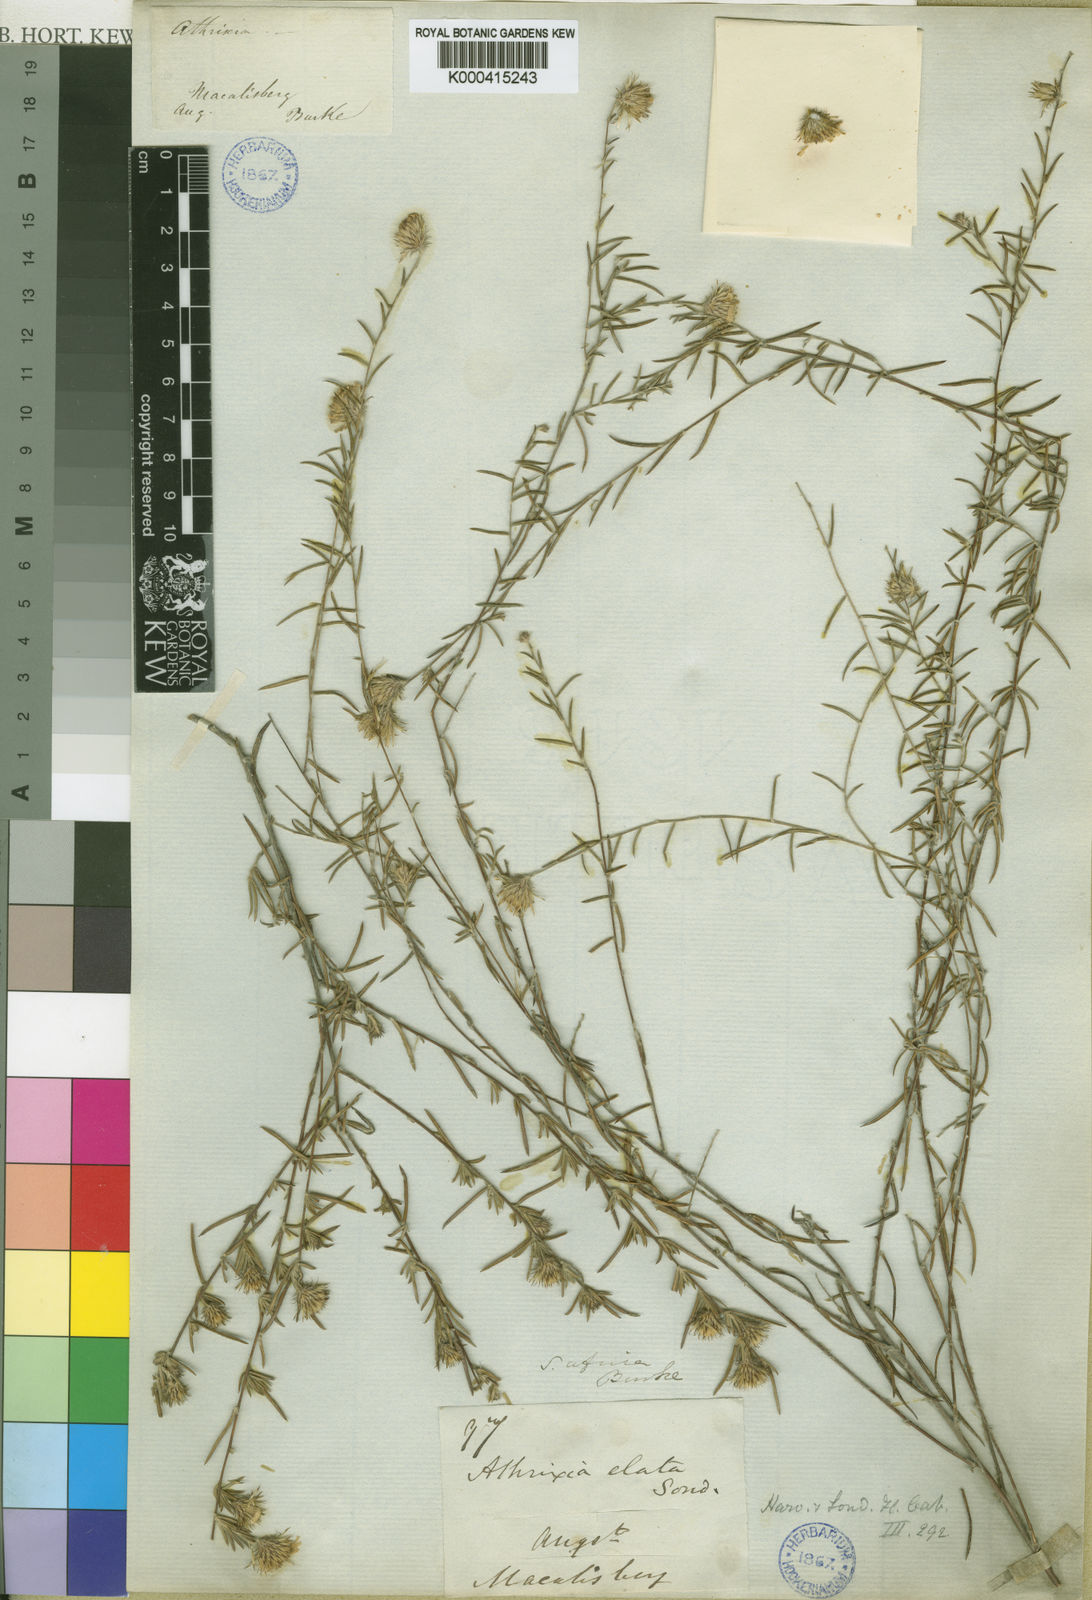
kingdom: Plantae
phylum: Tracheophyta
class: Magnoliopsida
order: Asterales
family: Asteraceae
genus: Athrixia
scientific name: Athrixia elata
